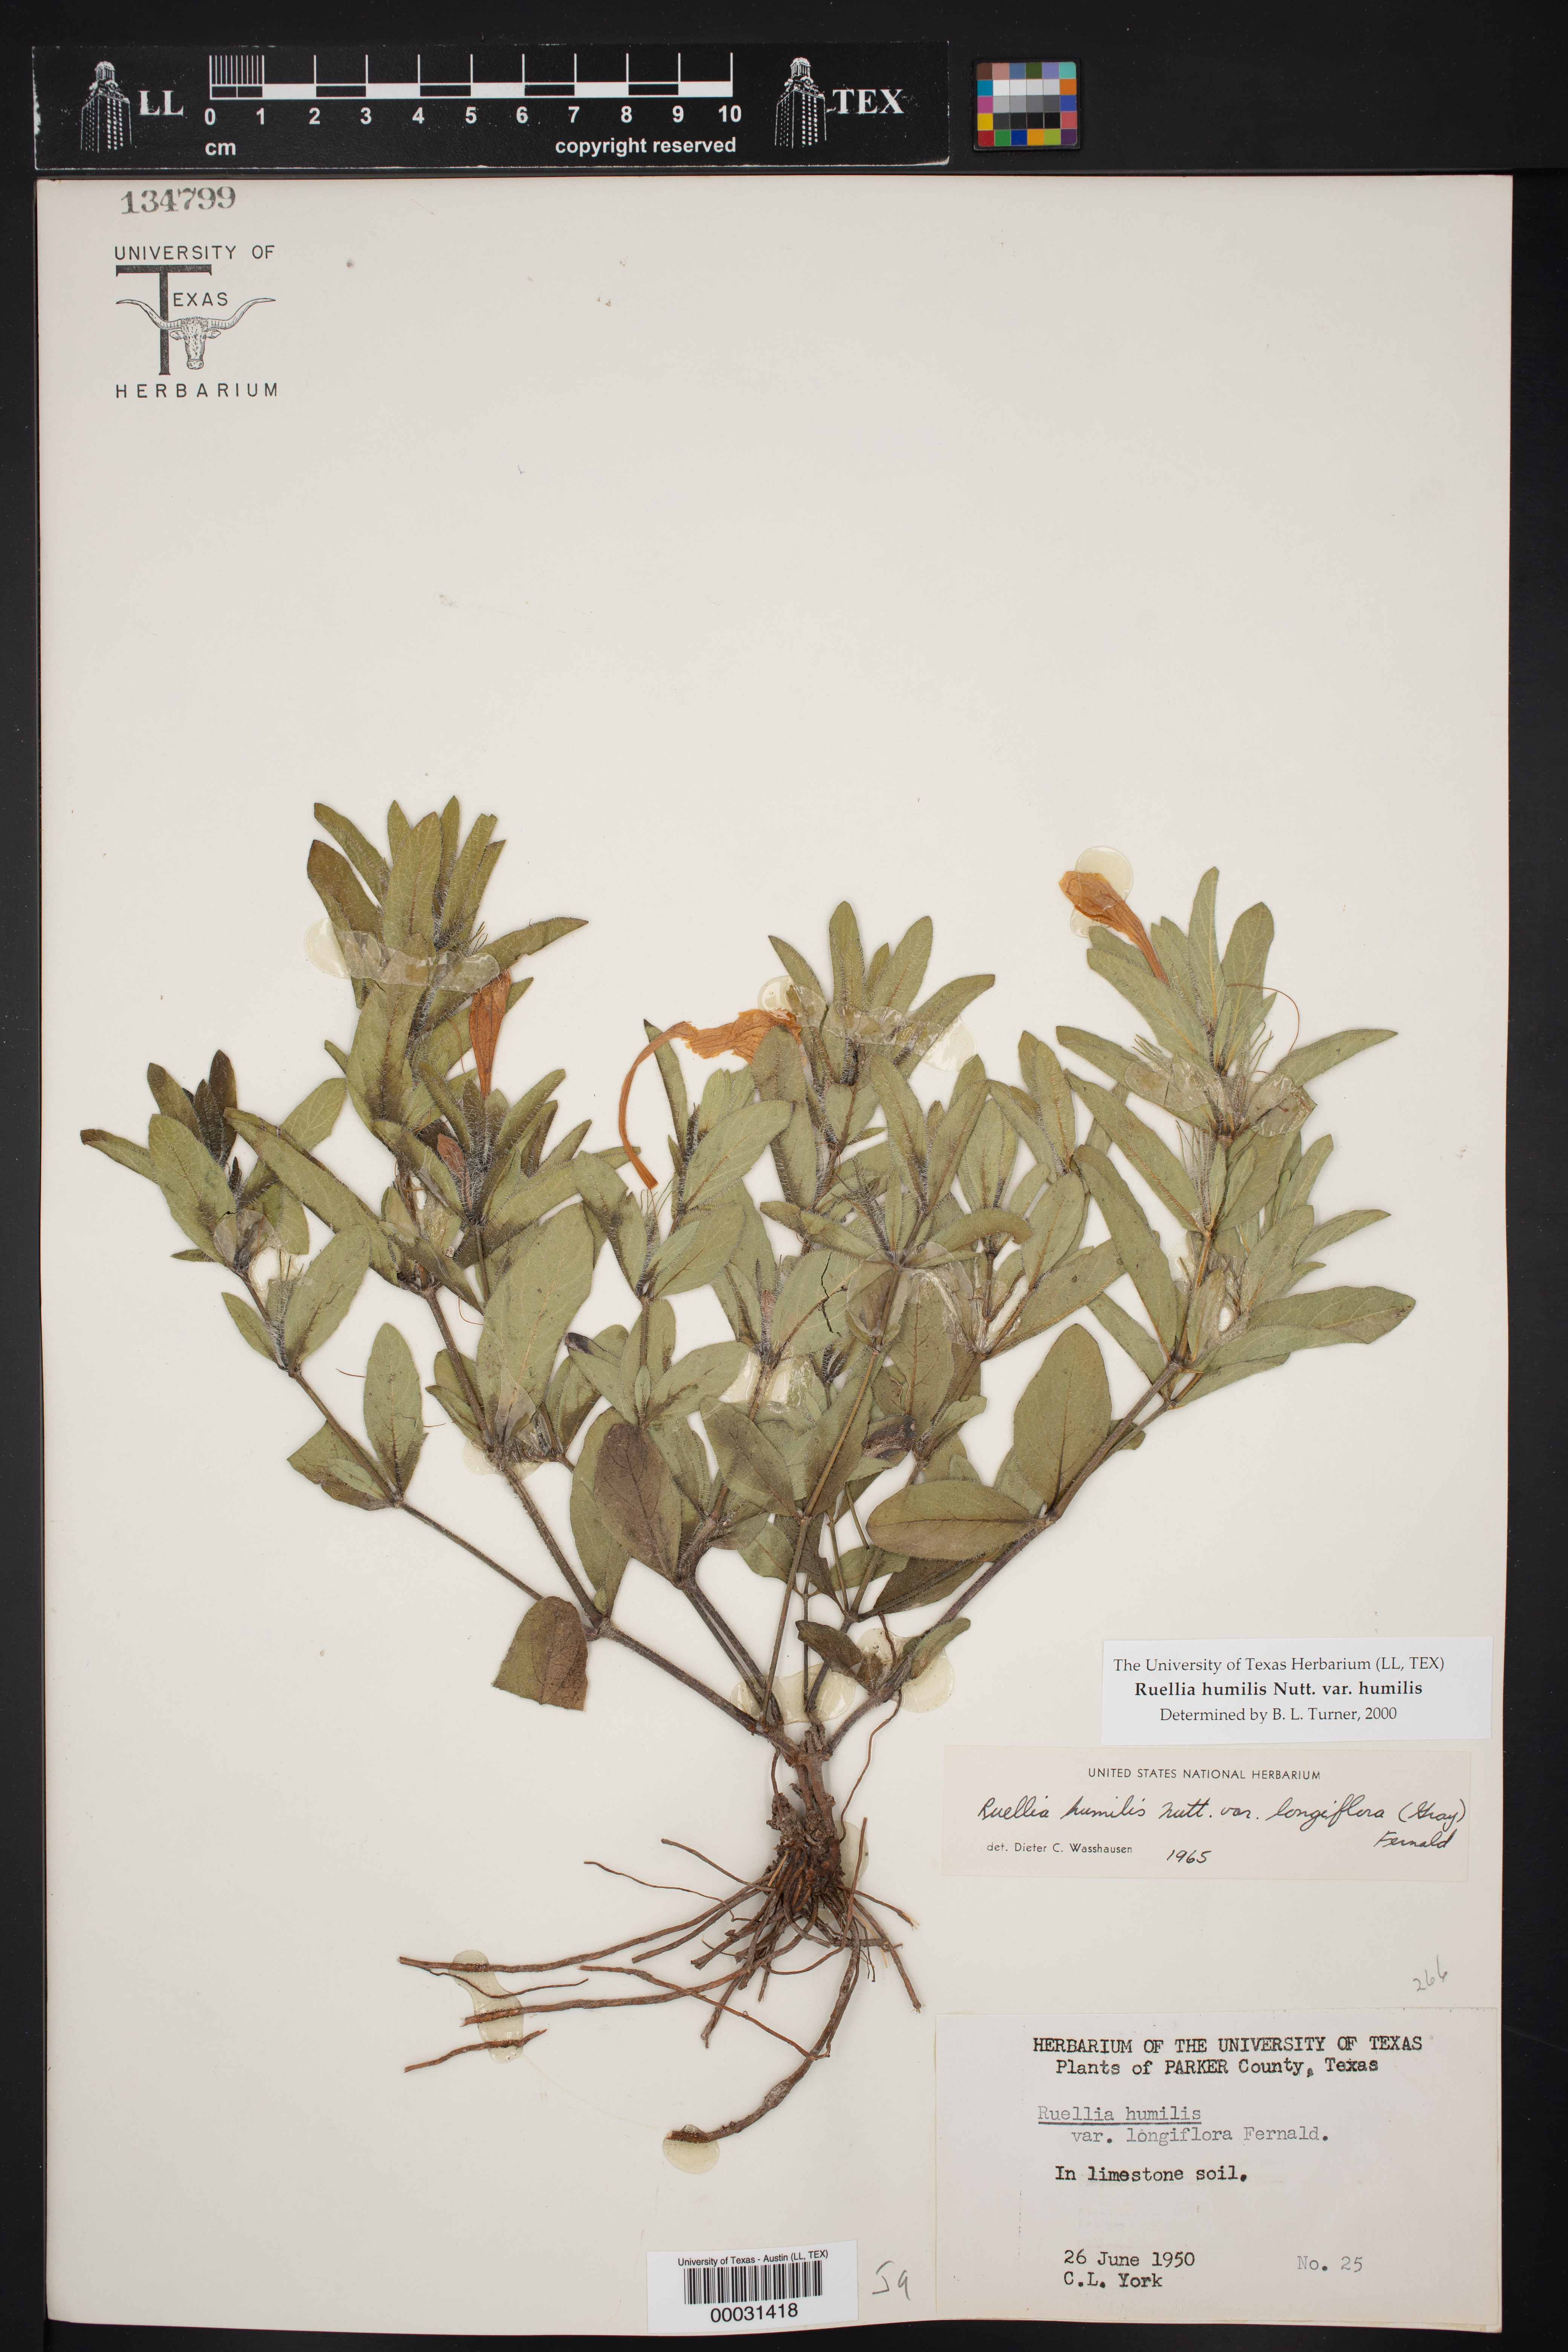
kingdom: Plantae
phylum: Tracheophyta
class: Magnoliopsida
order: Lamiales
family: Acanthaceae
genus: Ruellia
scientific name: Ruellia humilis
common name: Fringe-leaf ruellia
